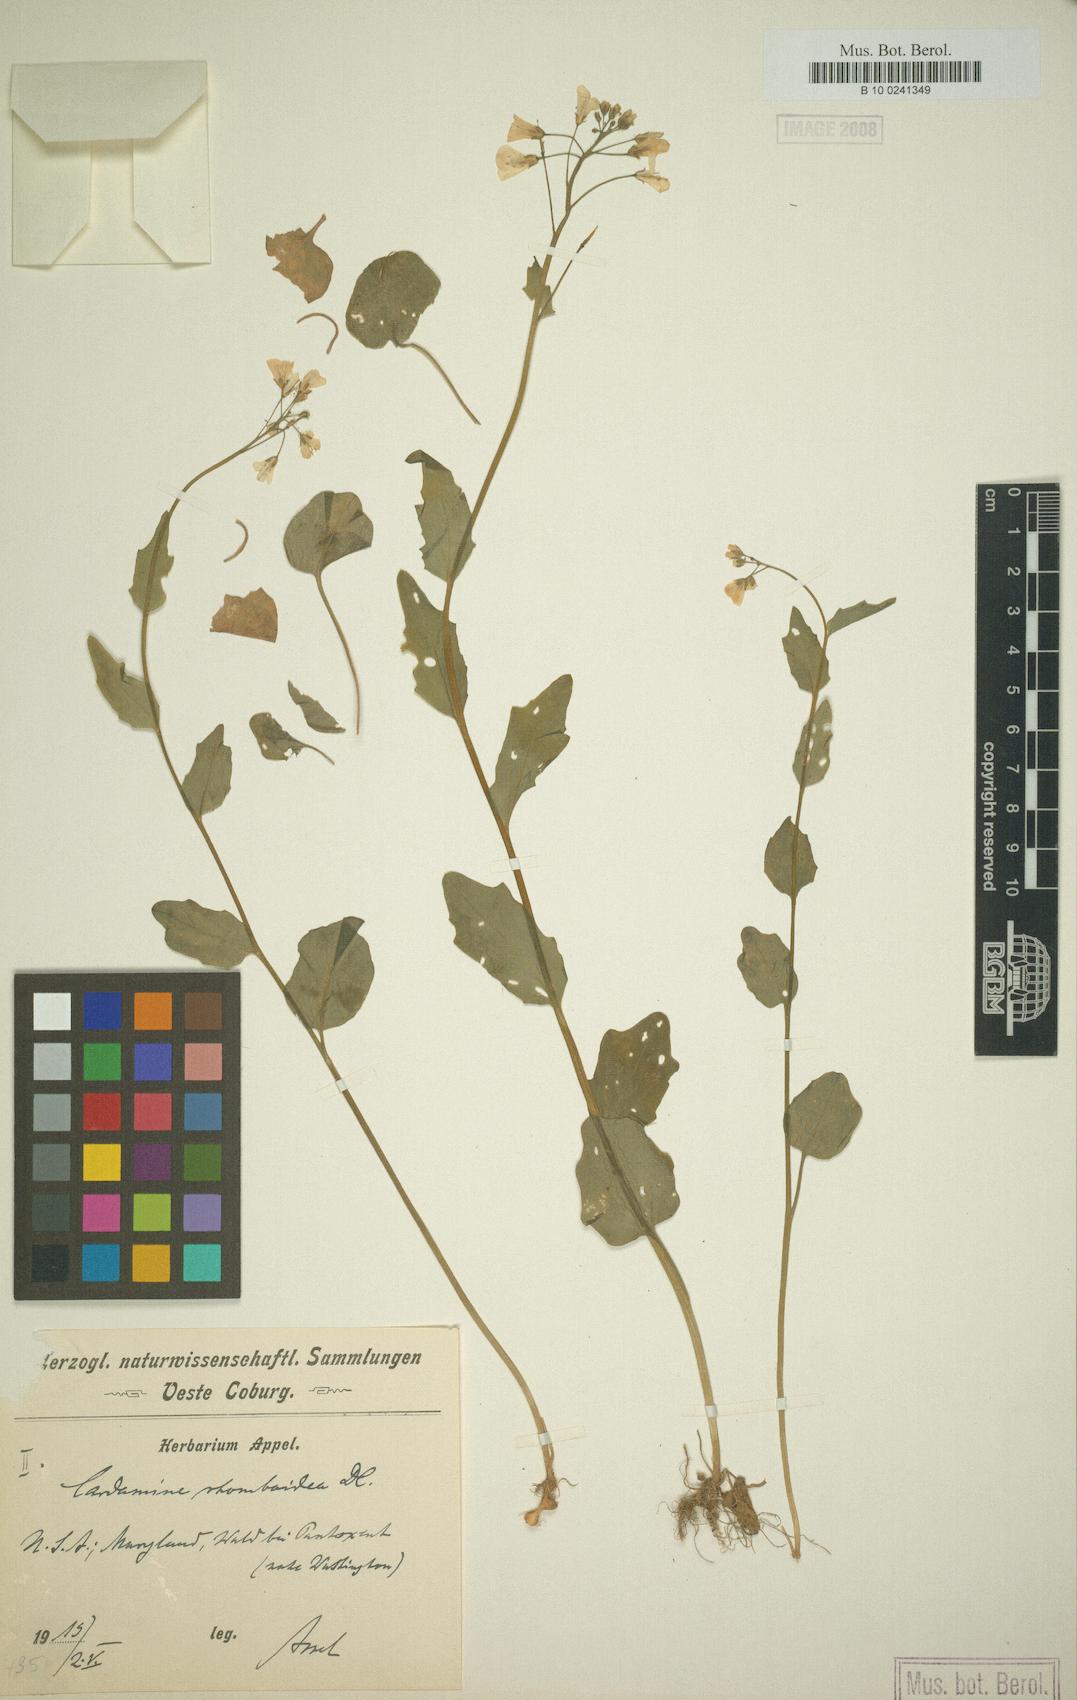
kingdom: Plantae
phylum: Tracheophyta
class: Magnoliopsida
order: Brassicales
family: Brassicaceae
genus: Cardamine
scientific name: Cardamine bulbosa
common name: Spring cress
